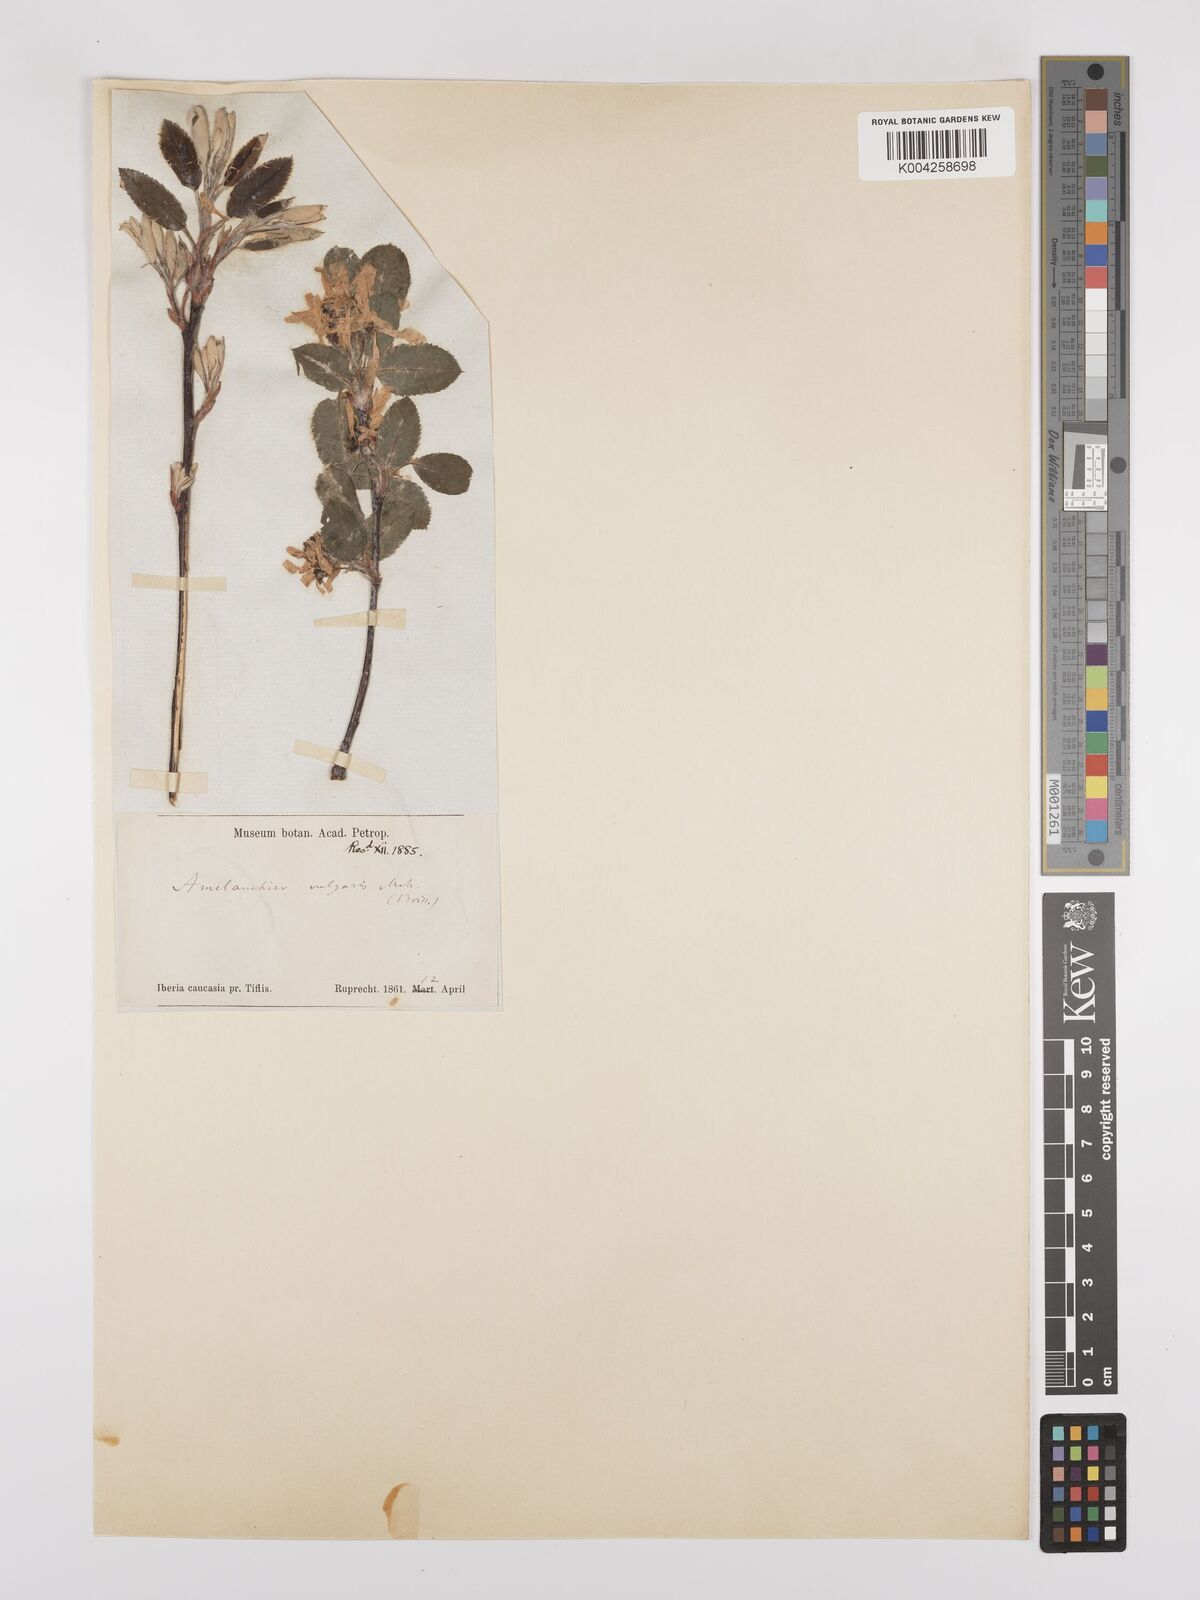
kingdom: Plantae
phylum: Tracheophyta
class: Magnoliopsida
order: Rosales
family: Rosaceae
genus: Amelanchier
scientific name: Amelanchier ovalis
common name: Serviceberry
